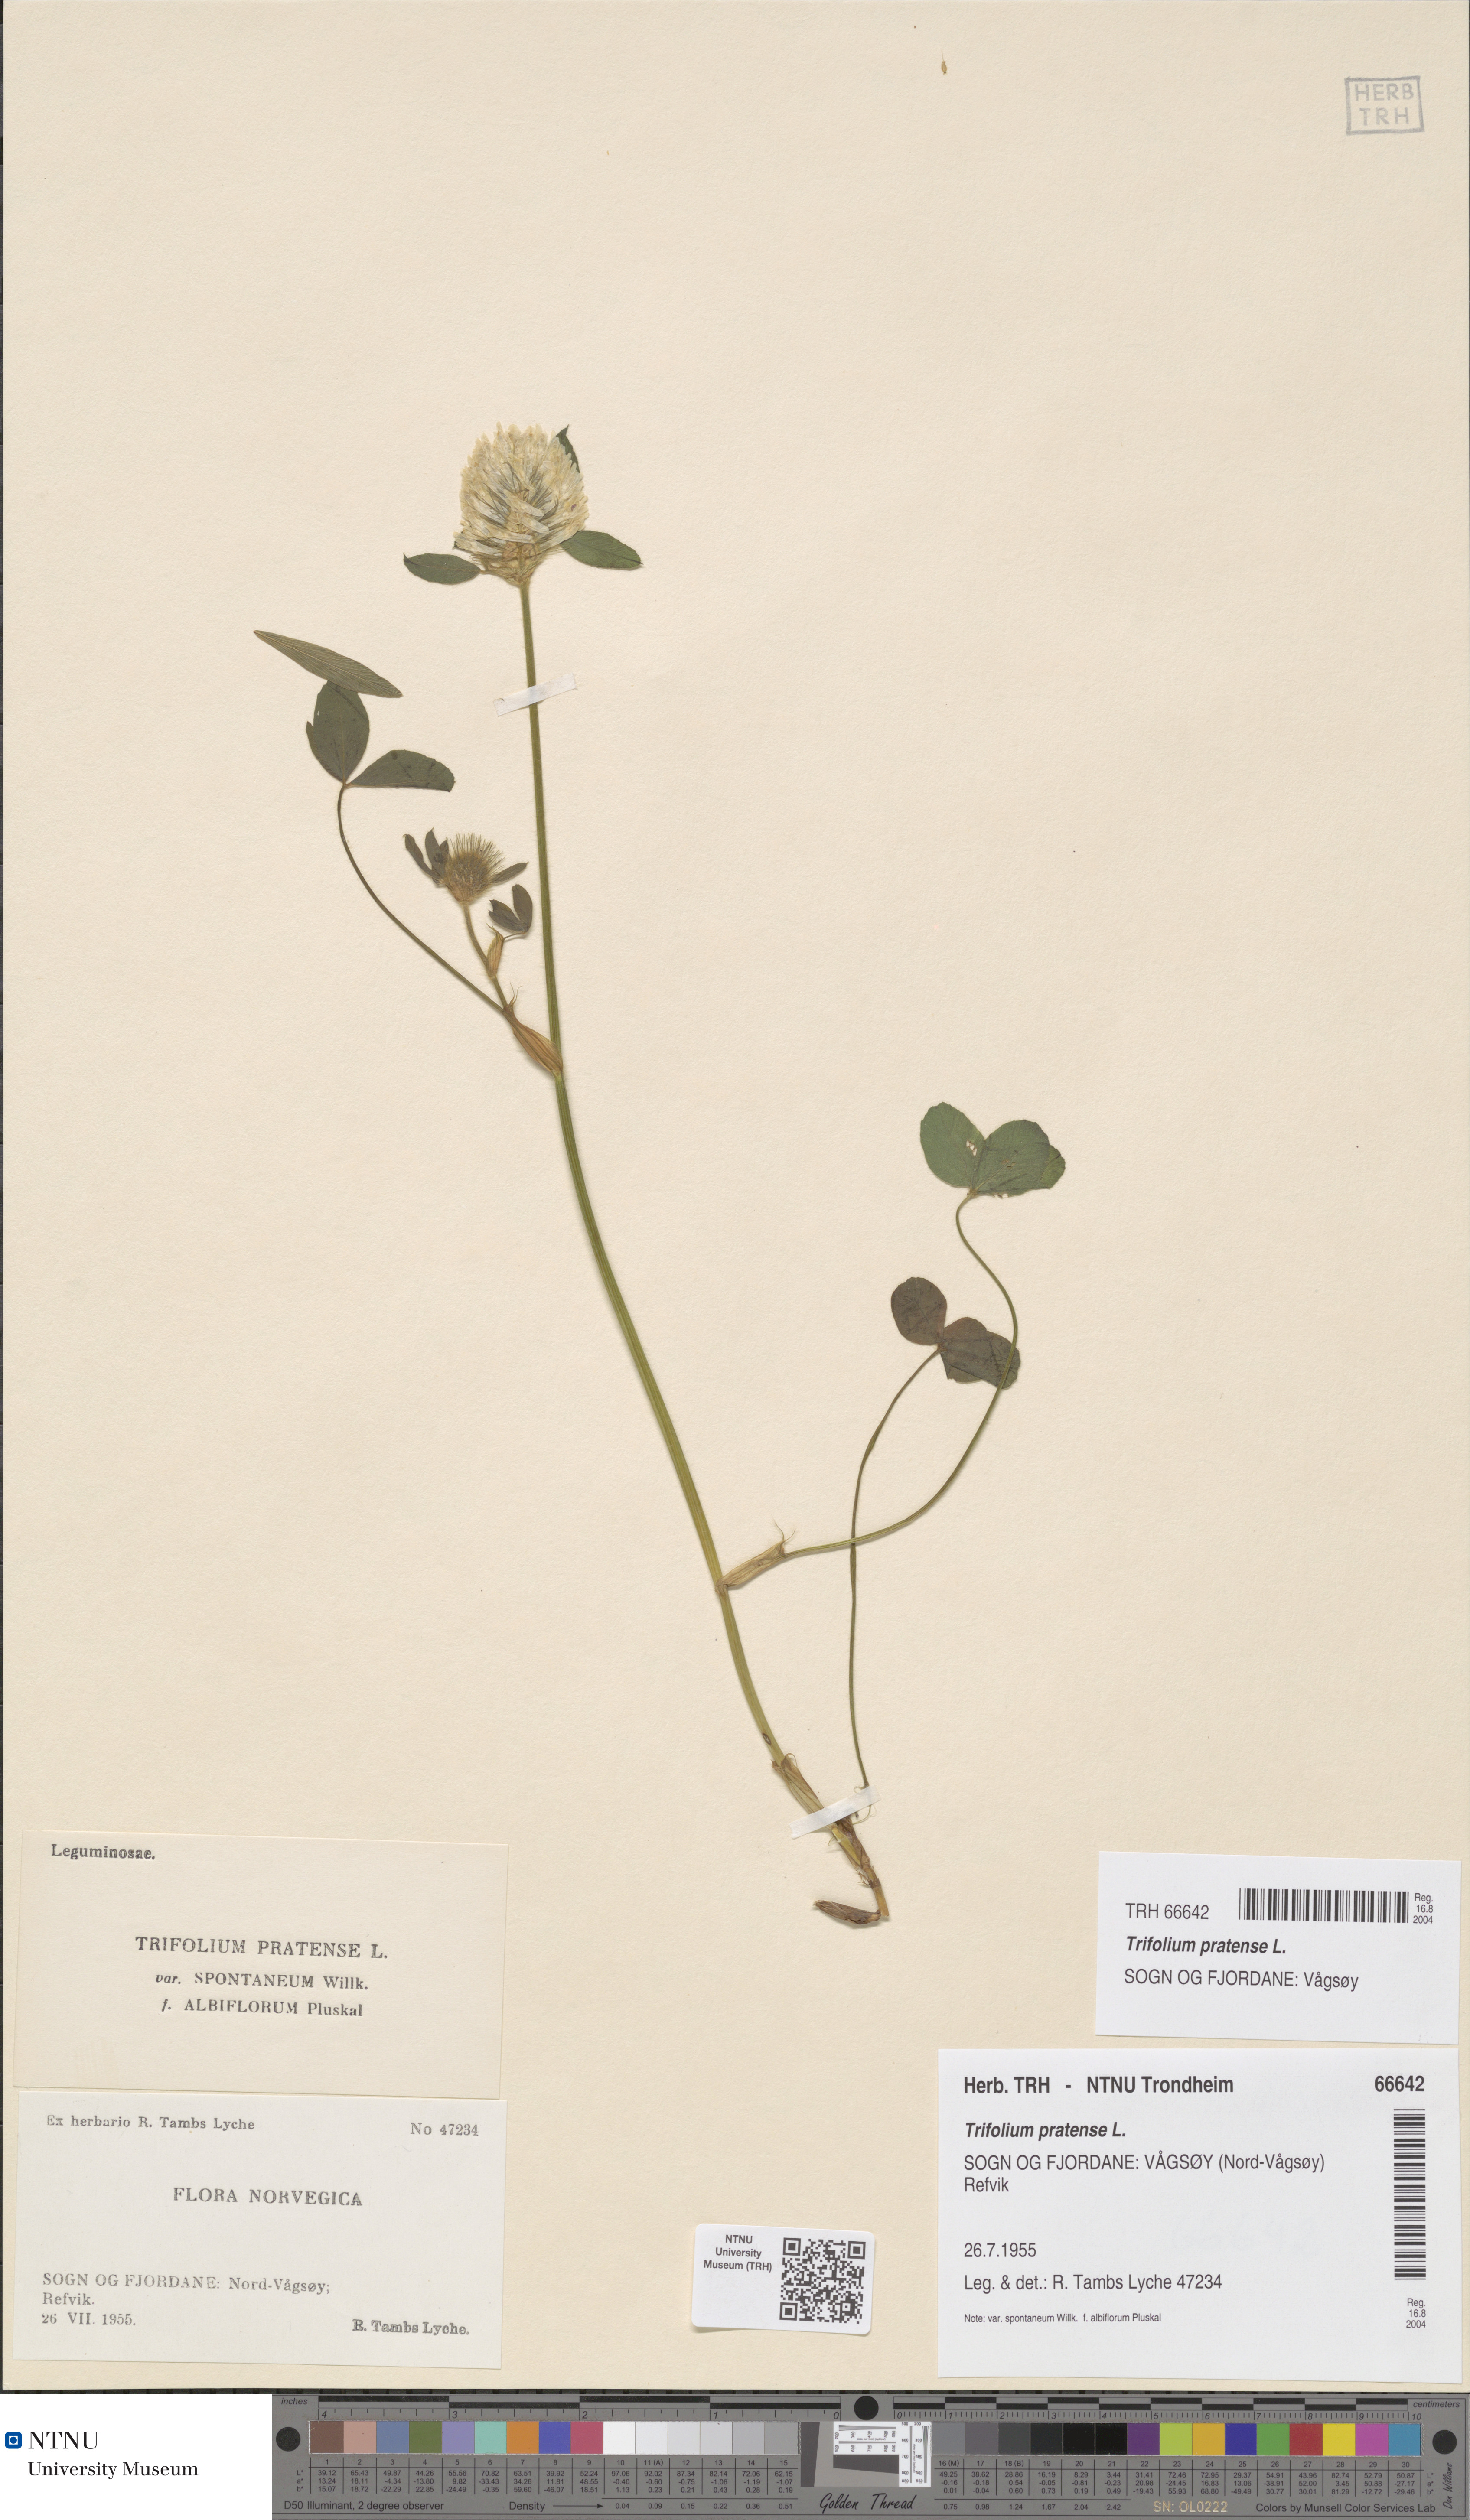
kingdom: Plantae
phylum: Tracheophyta
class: Magnoliopsida
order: Fabales
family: Fabaceae
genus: Trifolium
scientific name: Trifolium pratense
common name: Red clover
